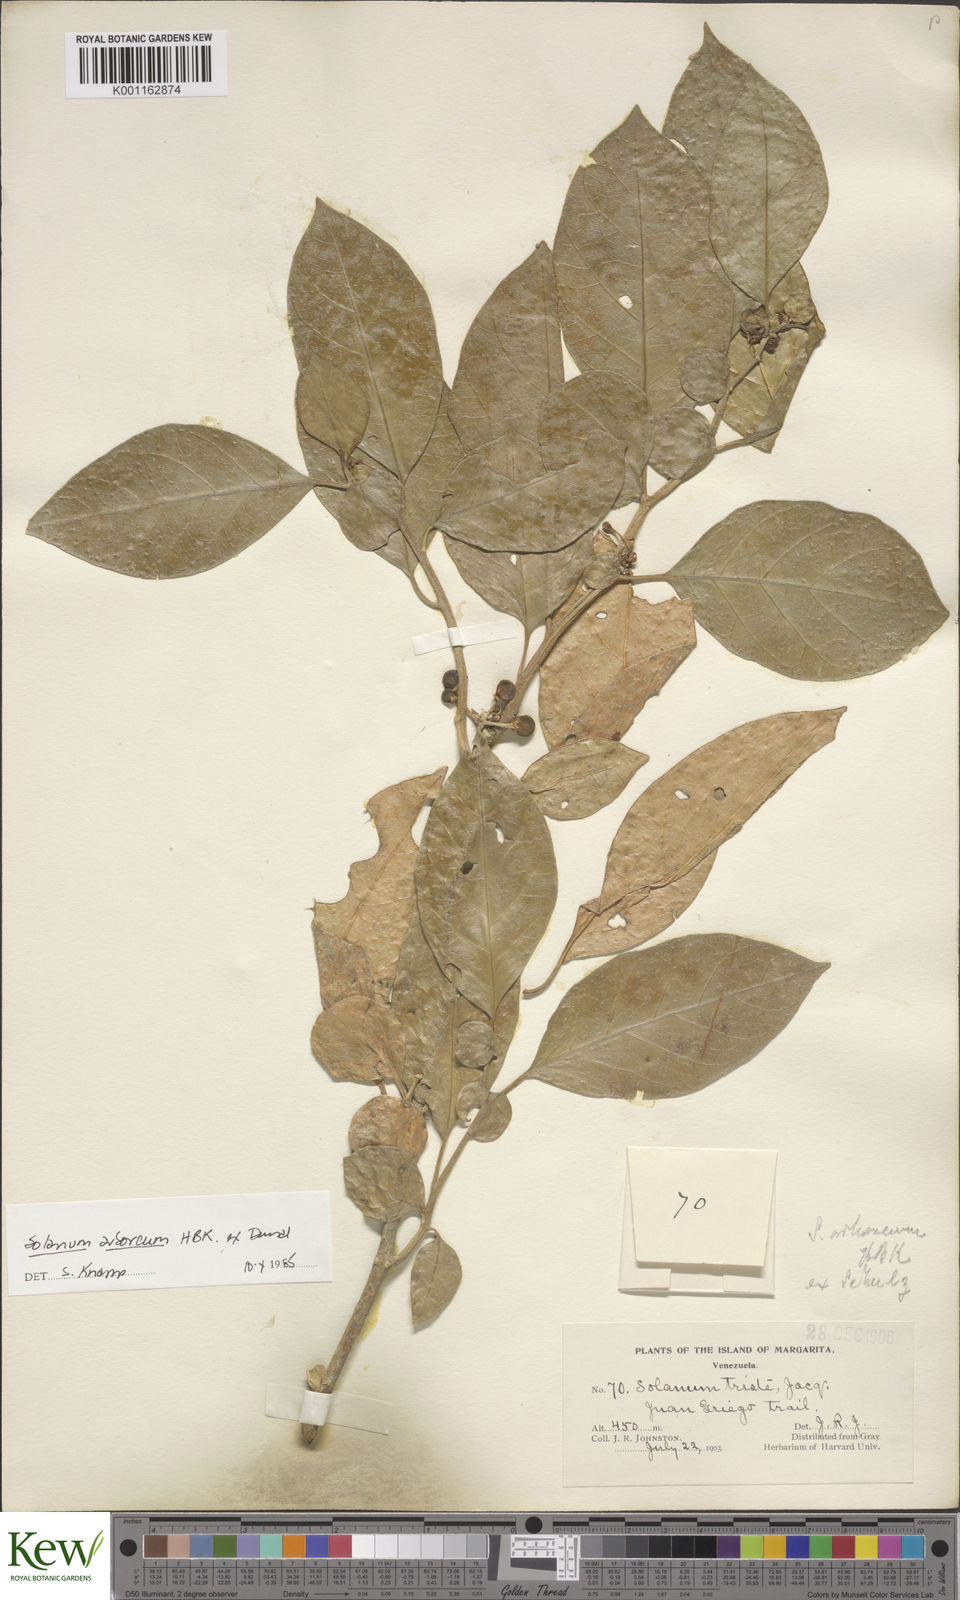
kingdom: Plantae
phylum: Tracheophyta
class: Magnoliopsida
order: Solanales
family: Solanaceae
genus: Solanum
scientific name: Solanum arboreum
